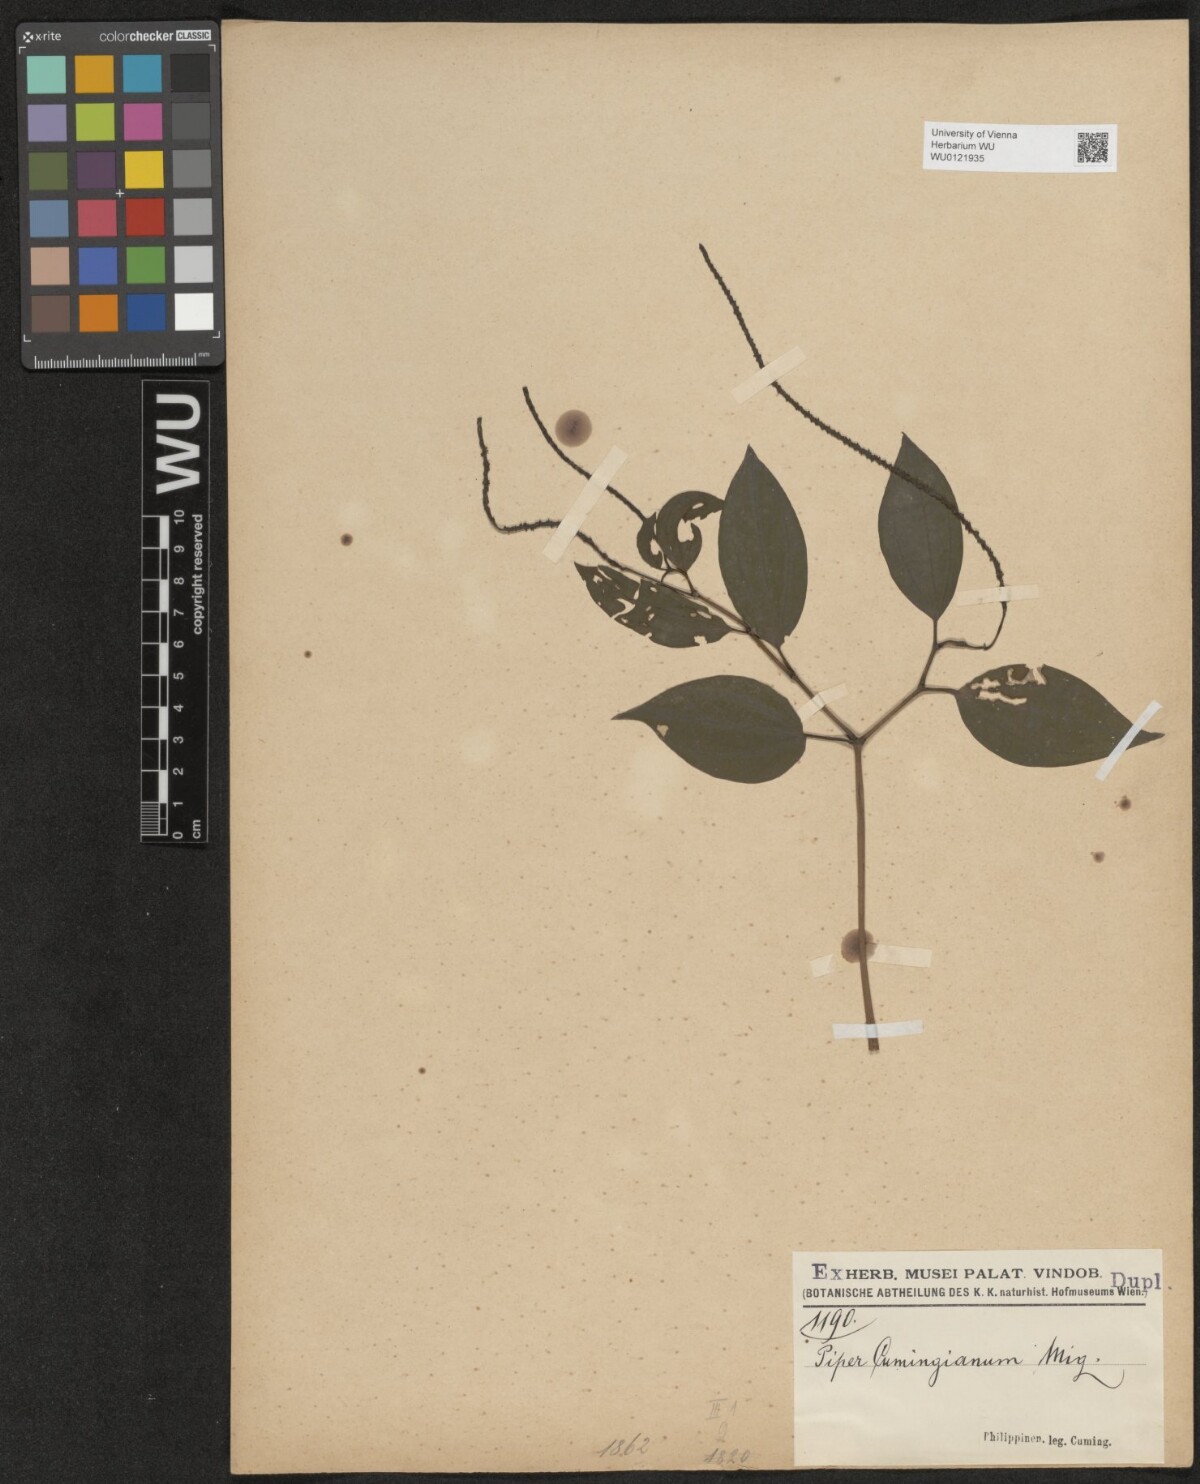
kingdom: Plantae
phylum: Tracheophyta
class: Magnoliopsida
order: Piperales
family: Piperaceae
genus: Piper
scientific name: Piper interruptum
